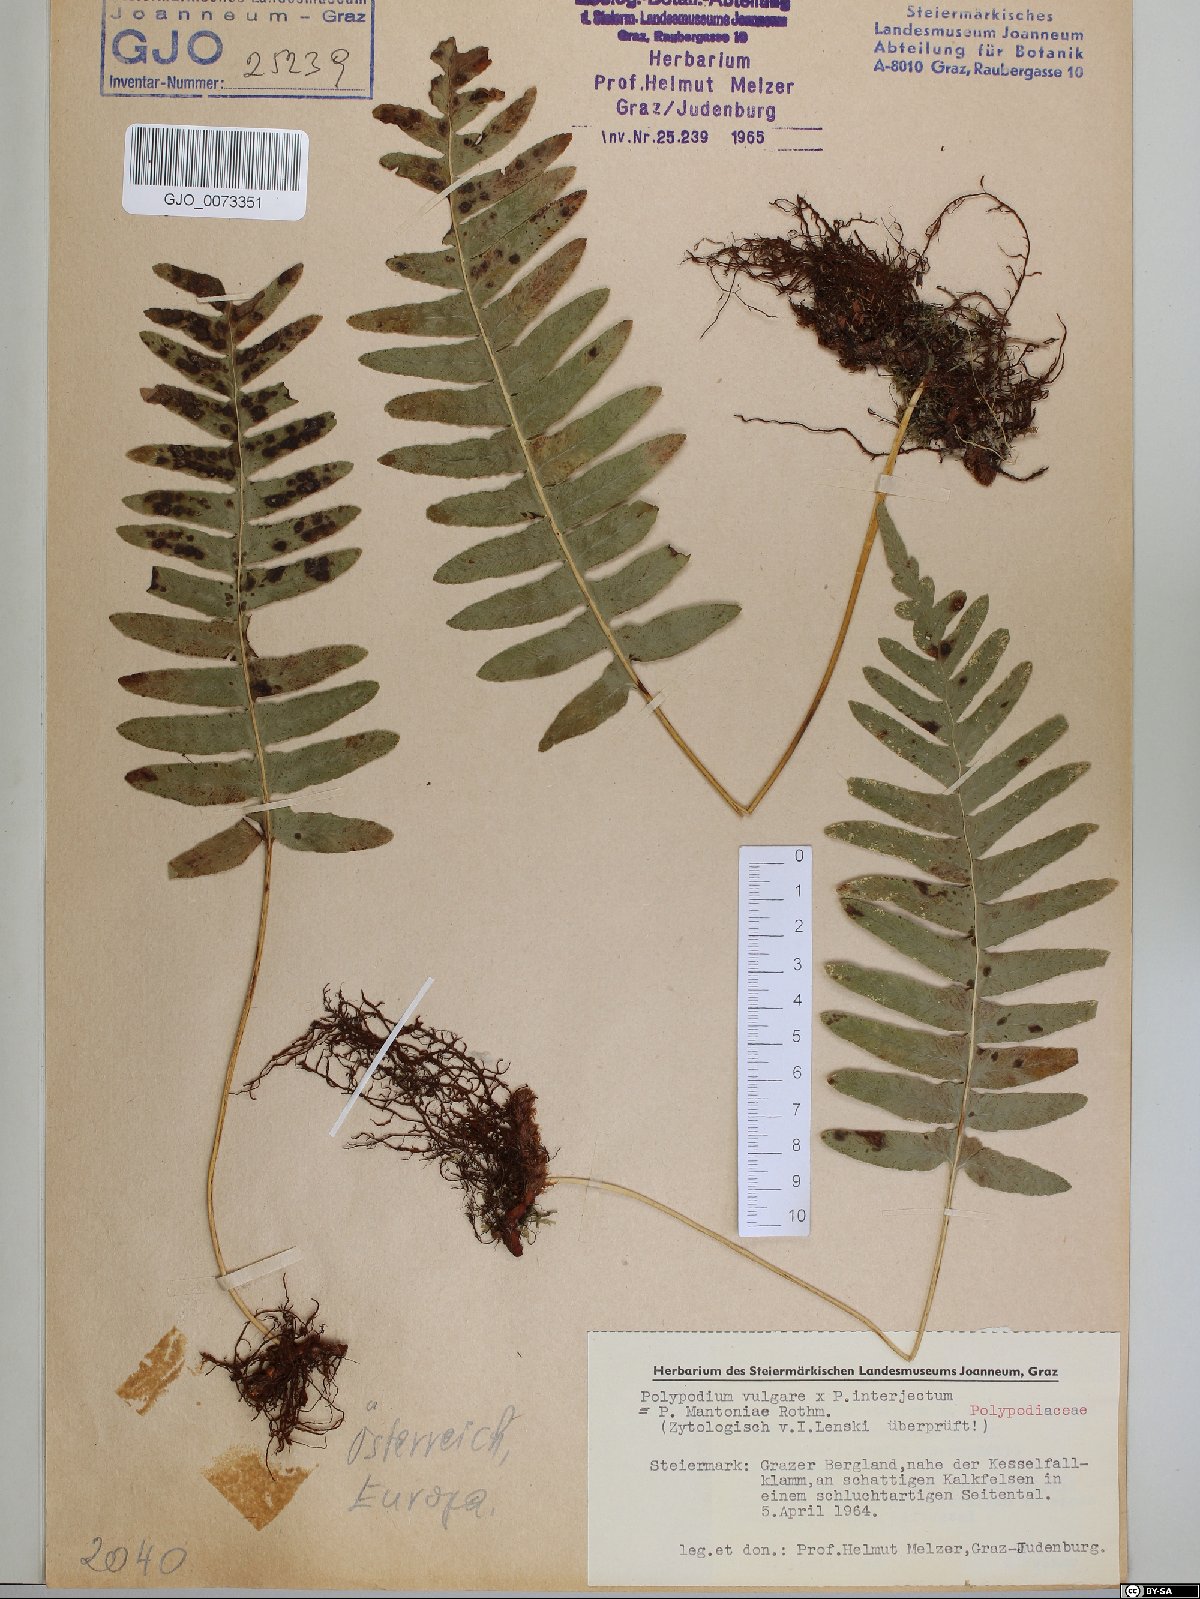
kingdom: Plantae
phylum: Tracheophyta
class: Polypodiopsida
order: Polypodiales
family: Polypodiaceae
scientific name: Polypodiaceae
